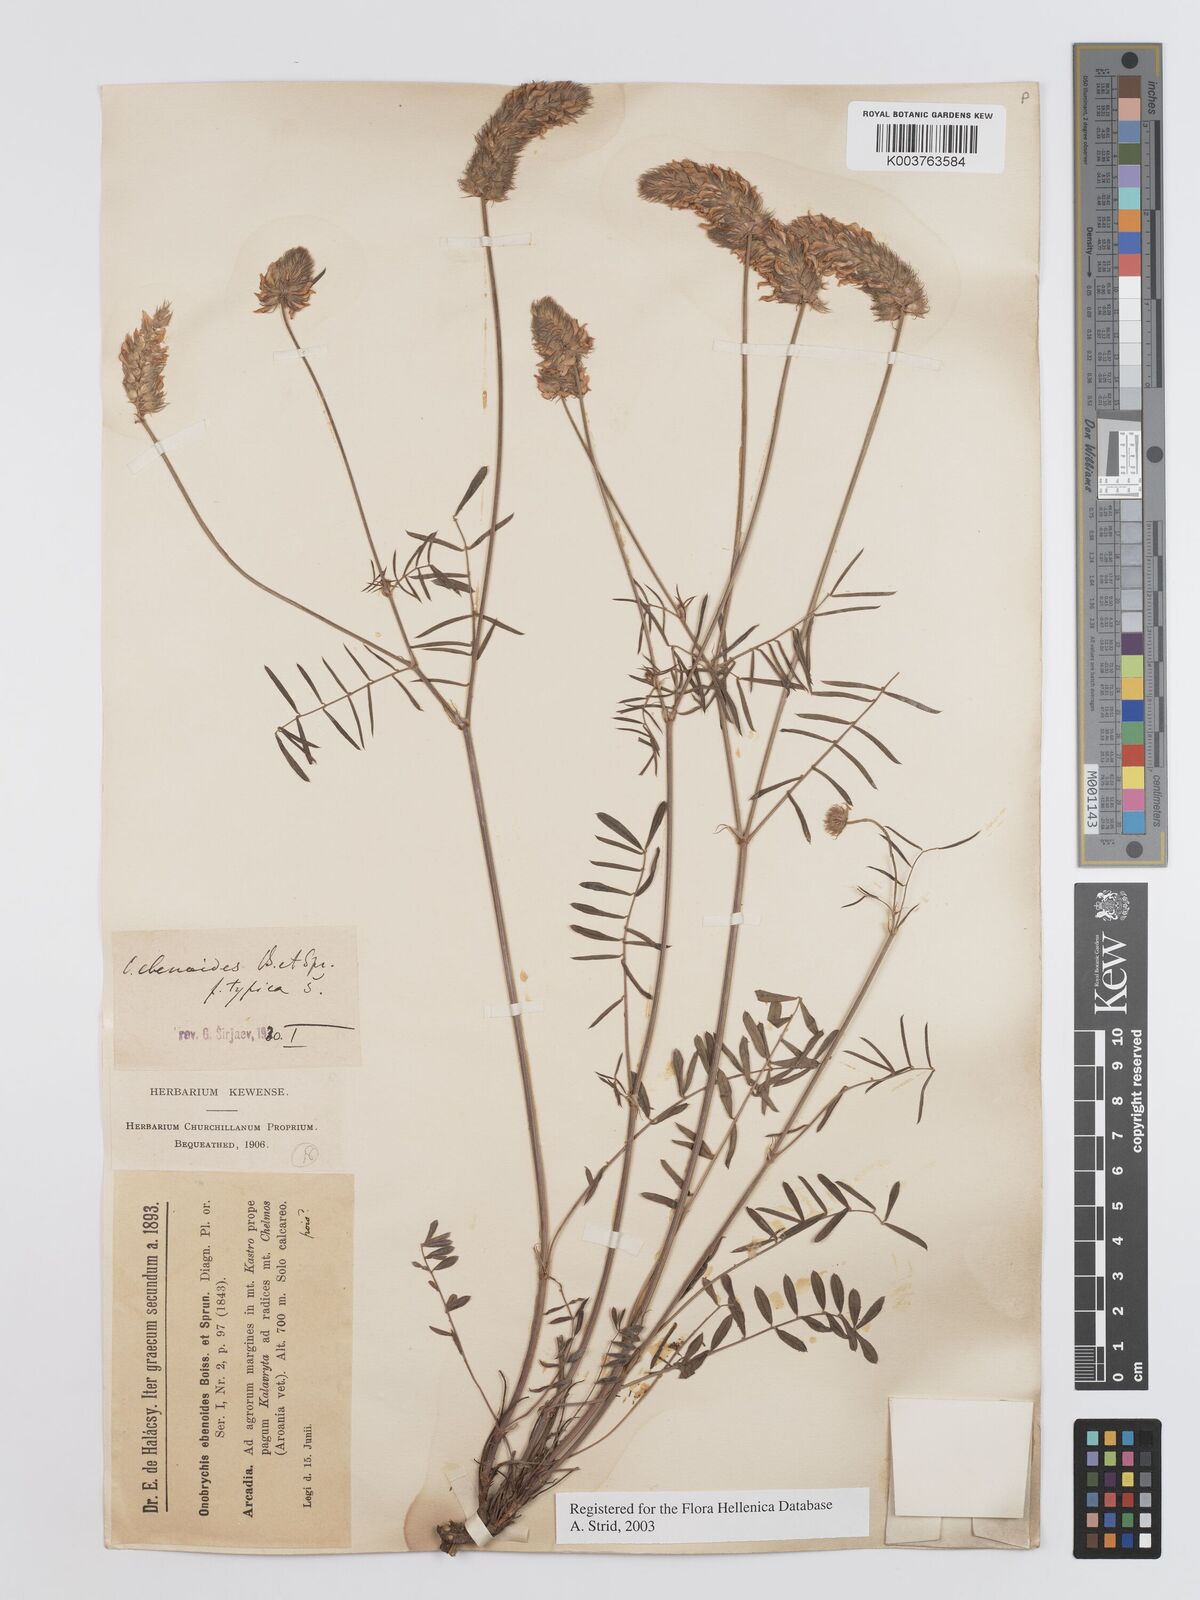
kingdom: Plantae
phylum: Tracheophyta
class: Magnoliopsida
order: Fabales
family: Fabaceae
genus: Onobrychis
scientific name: Onobrychis ebenoides
